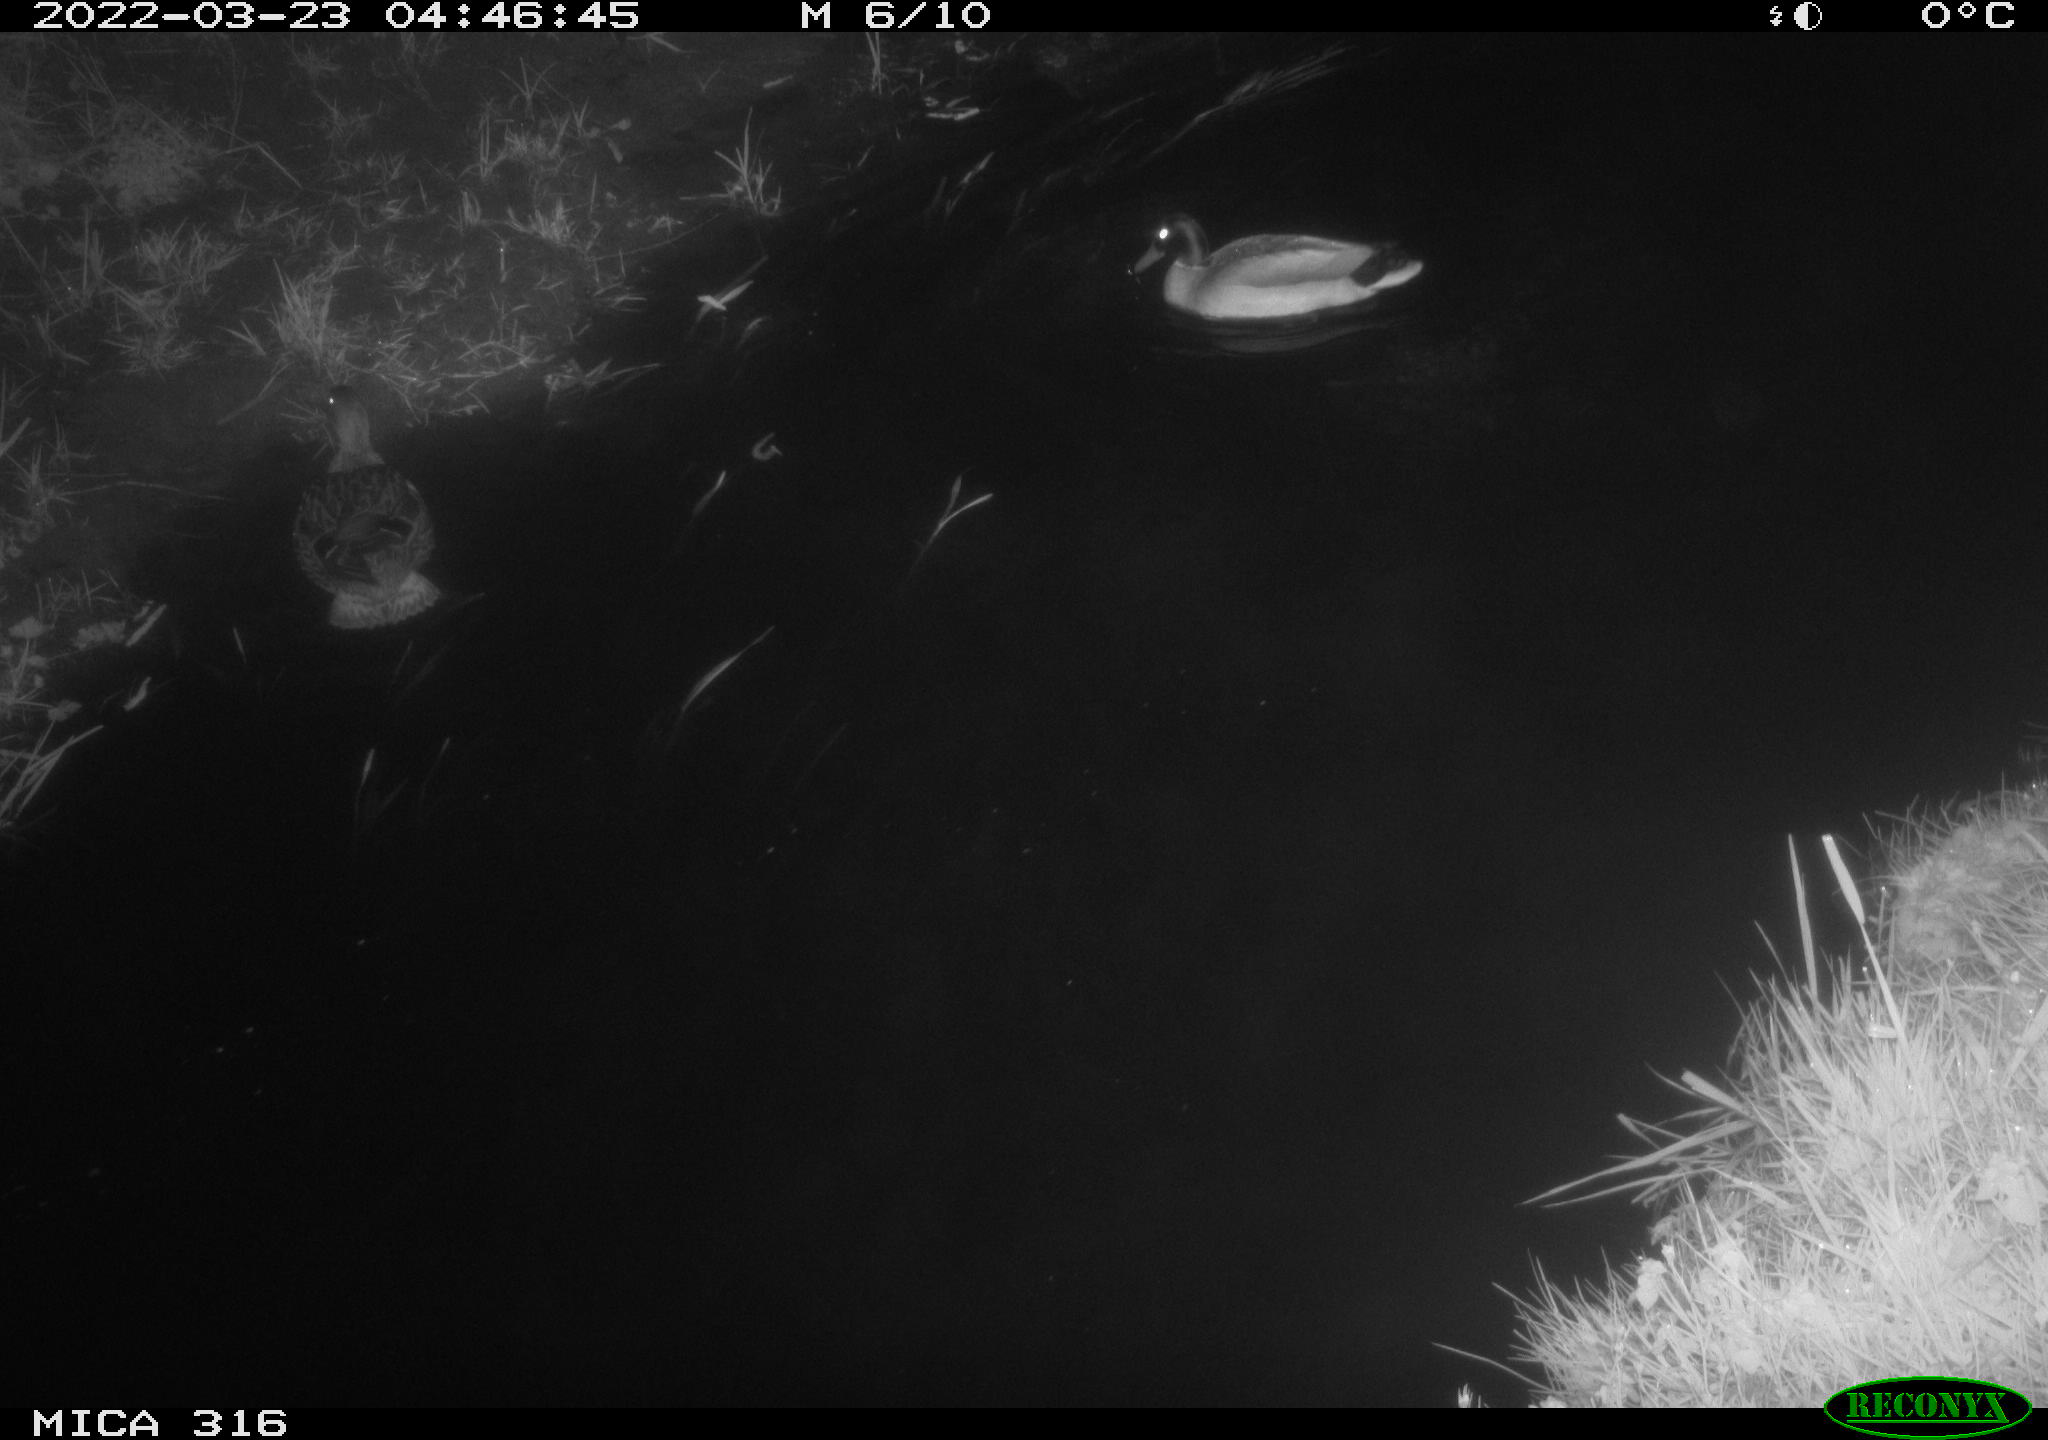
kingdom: Animalia
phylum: Chordata
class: Aves
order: Anseriformes
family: Anatidae
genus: Anas
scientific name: Anas platyrhynchos
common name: Mallard
